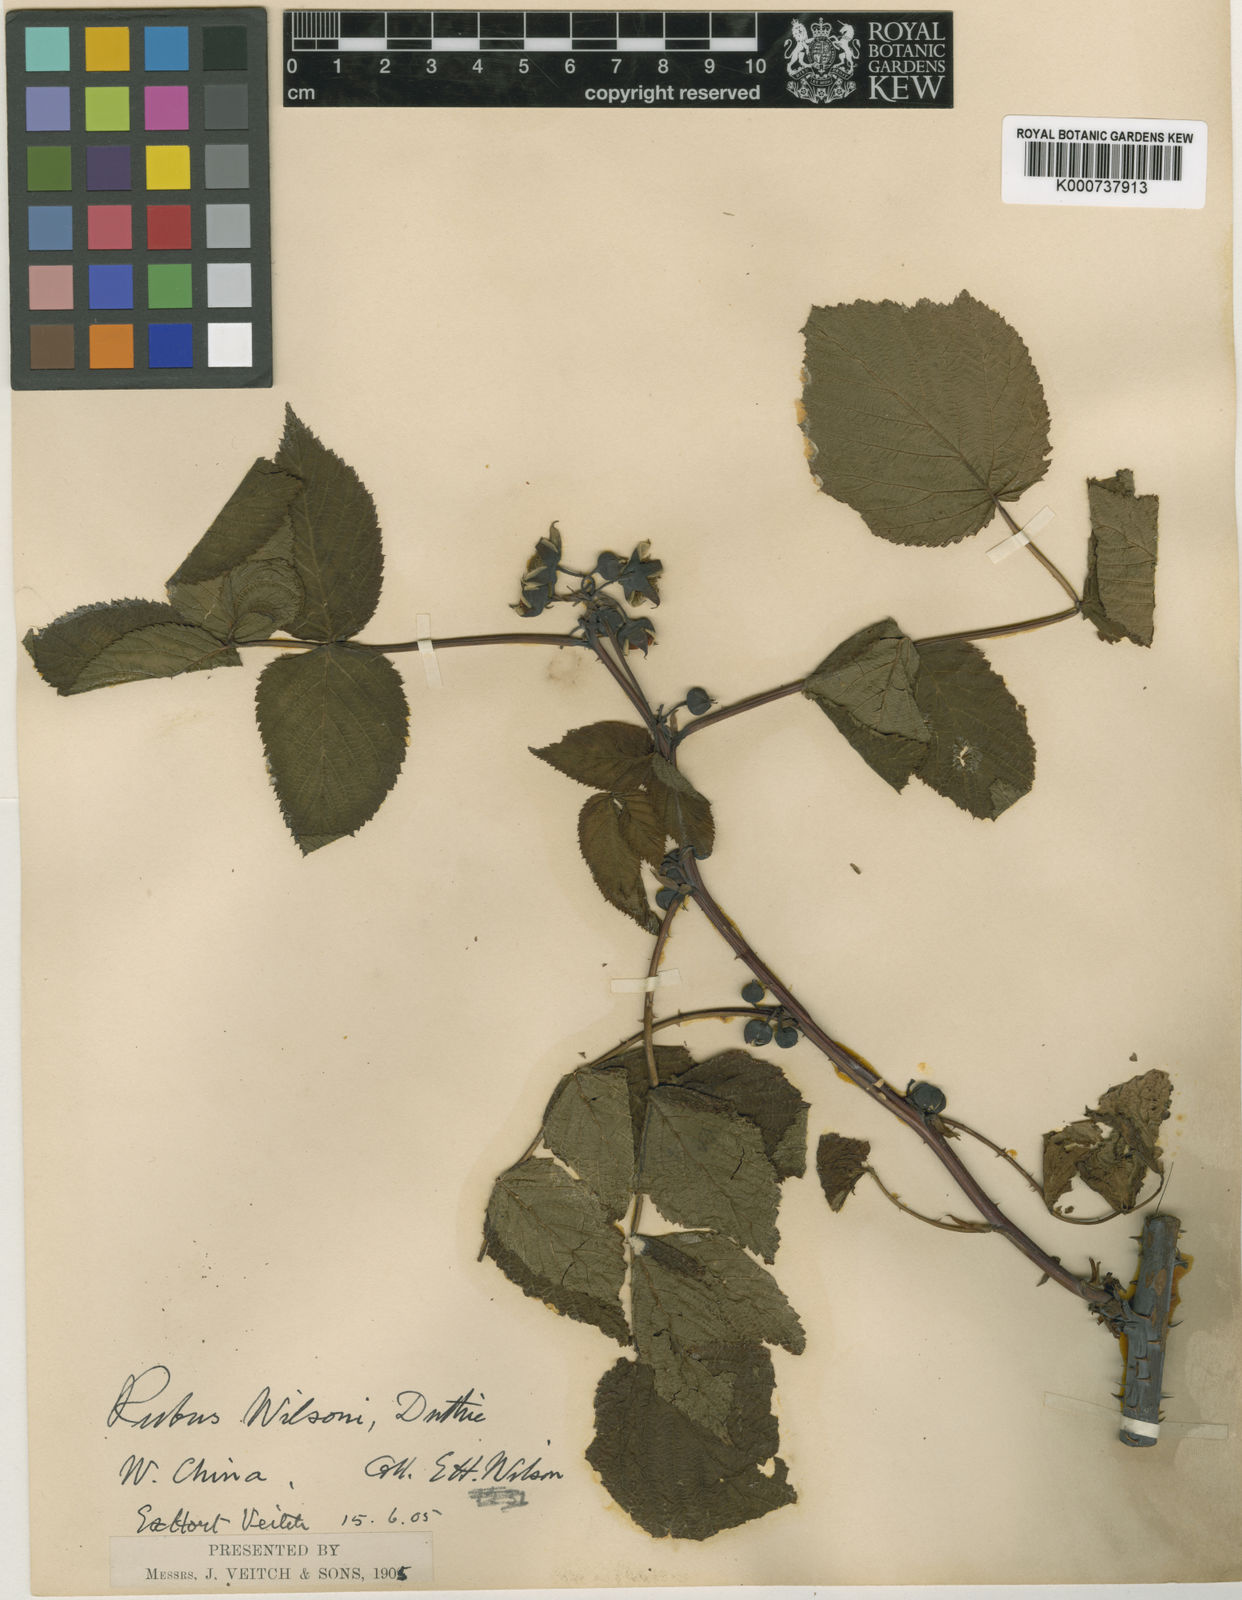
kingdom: Plantae
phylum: Tracheophyta
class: Magnoliopsida
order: Rosales
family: Rosaceae
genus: Rubus
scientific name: Rubus wilsonii
